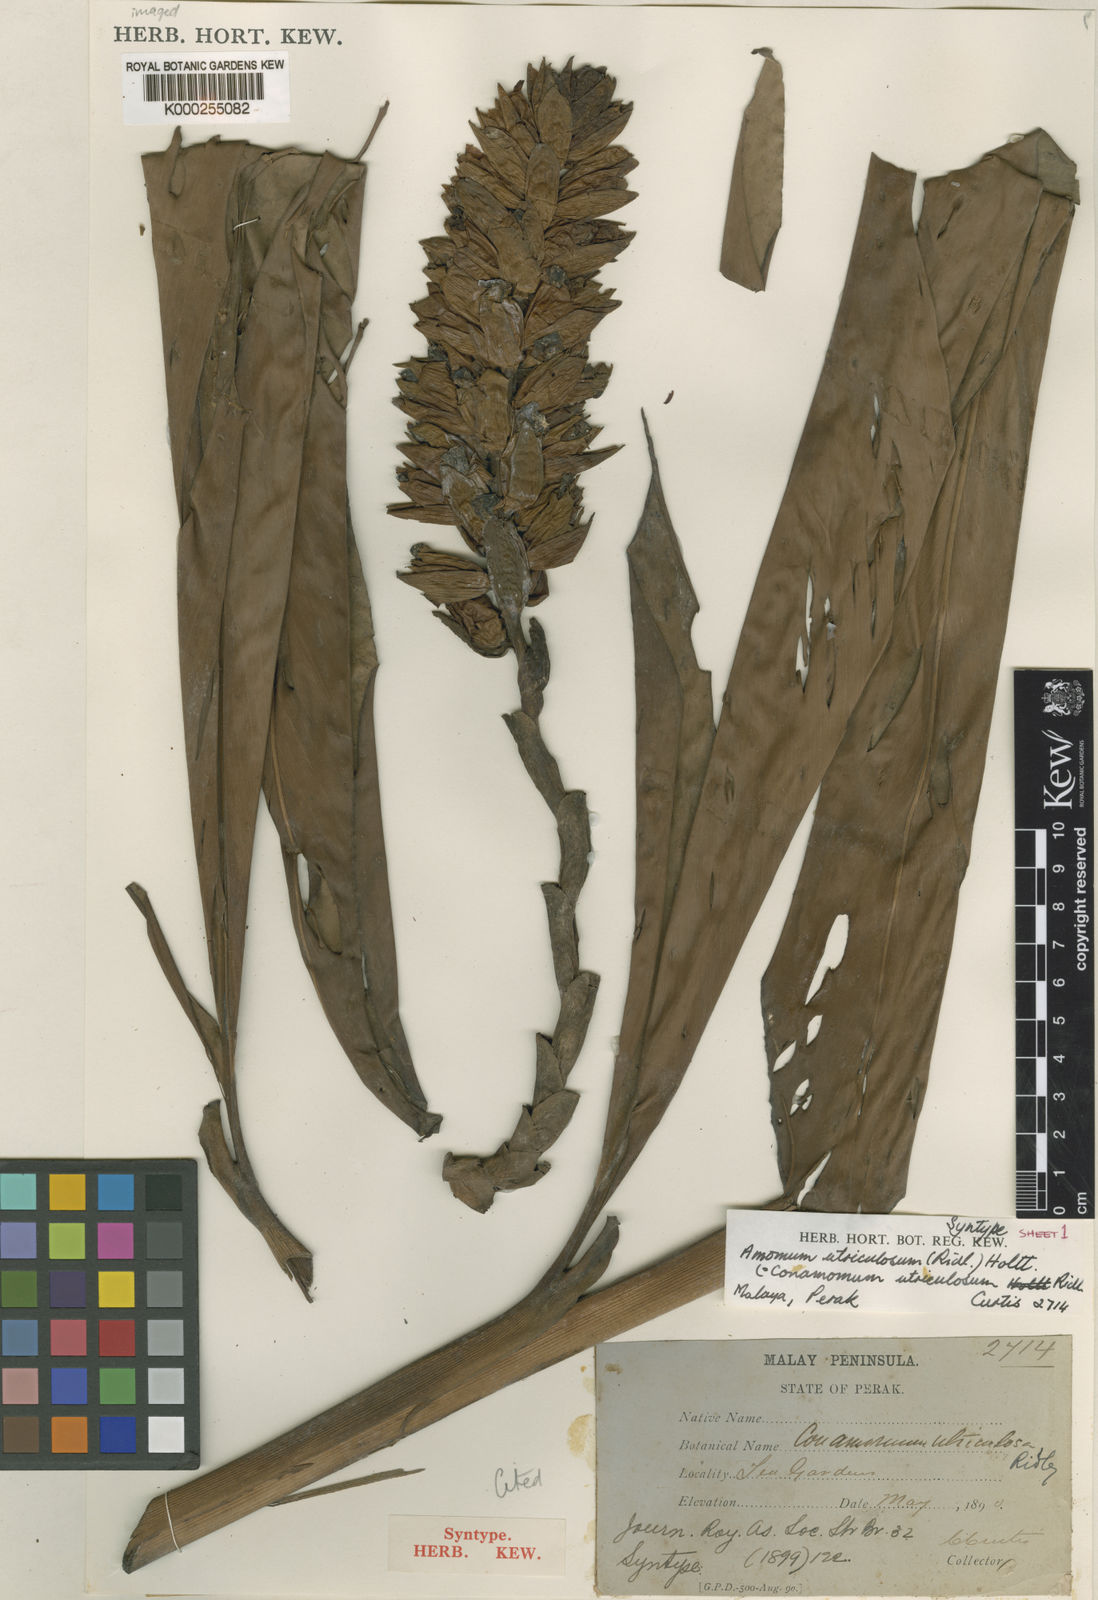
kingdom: Plantae
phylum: Tracheophyta
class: Liliopsida
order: Zingiberales
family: Zingiberaceae
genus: Conamomum
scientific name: Conamomum utriculosum
